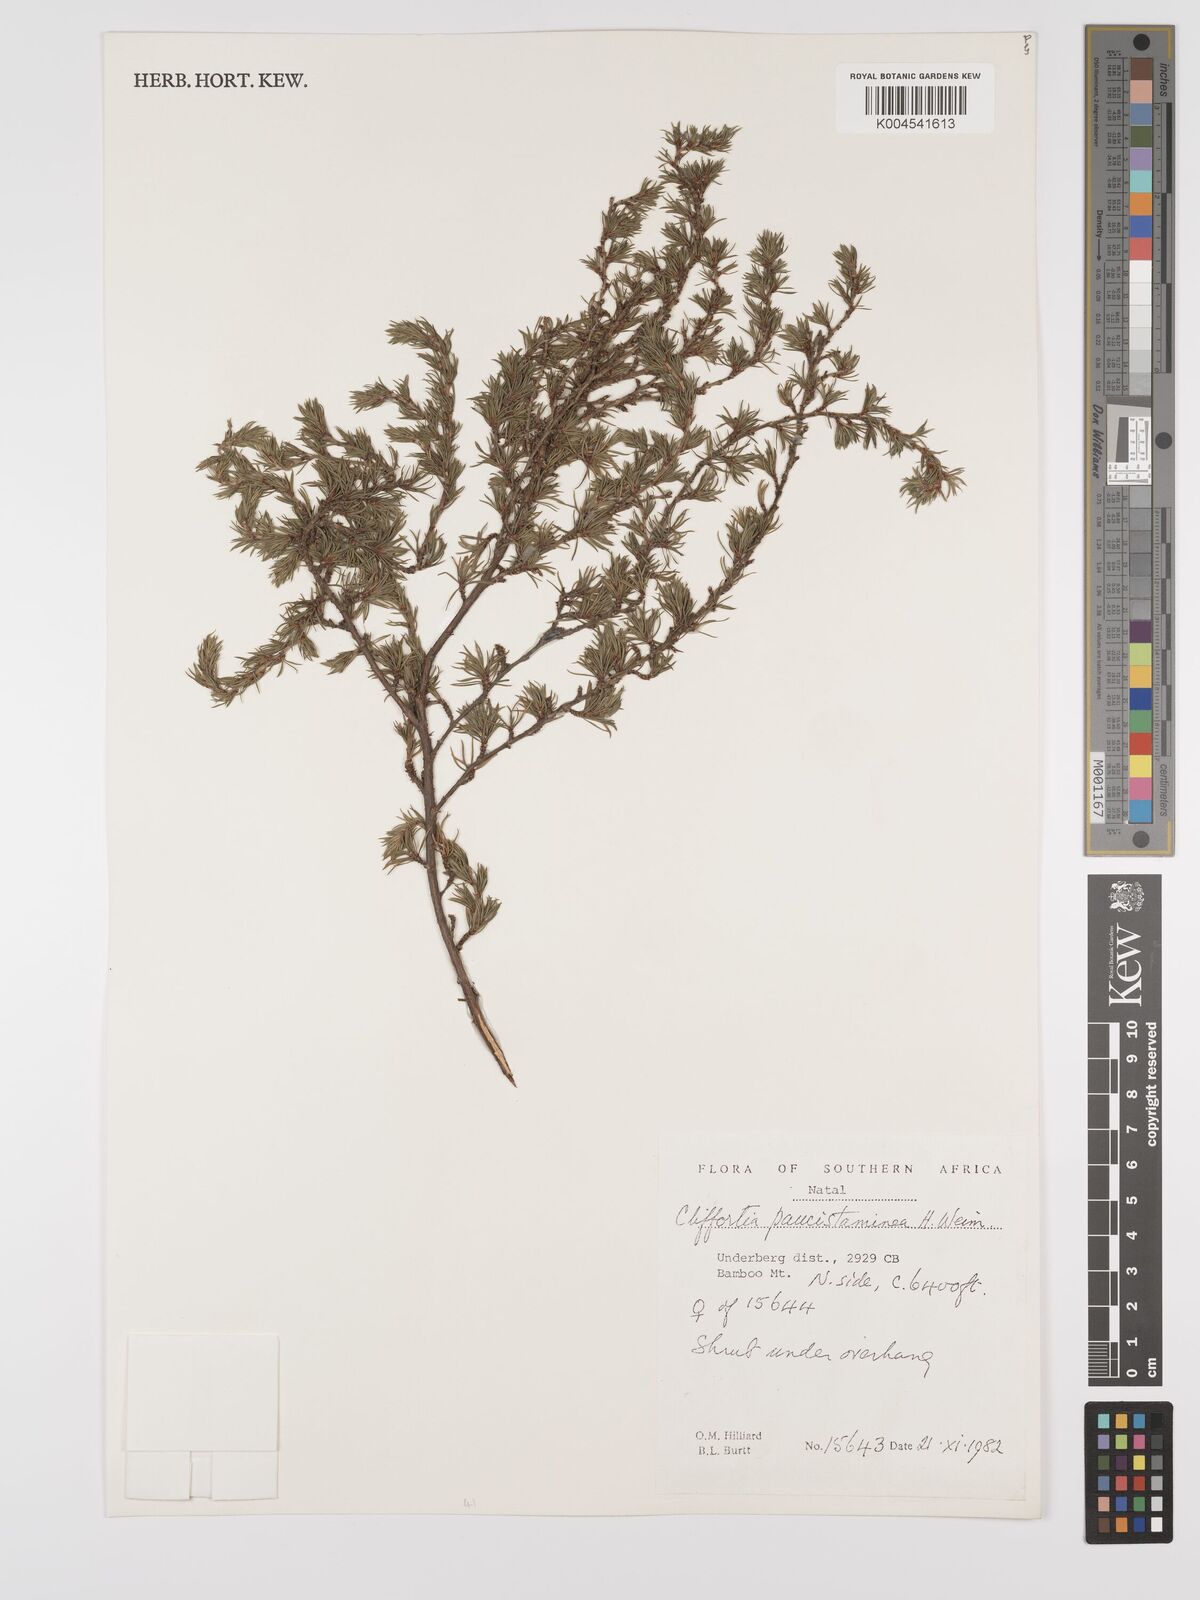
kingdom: Plantae
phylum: Tracheophyta
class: Magnoliopsida
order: Rosales
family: Rosaceae
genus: Cliffortia
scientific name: Cliffortia paucistaminea
